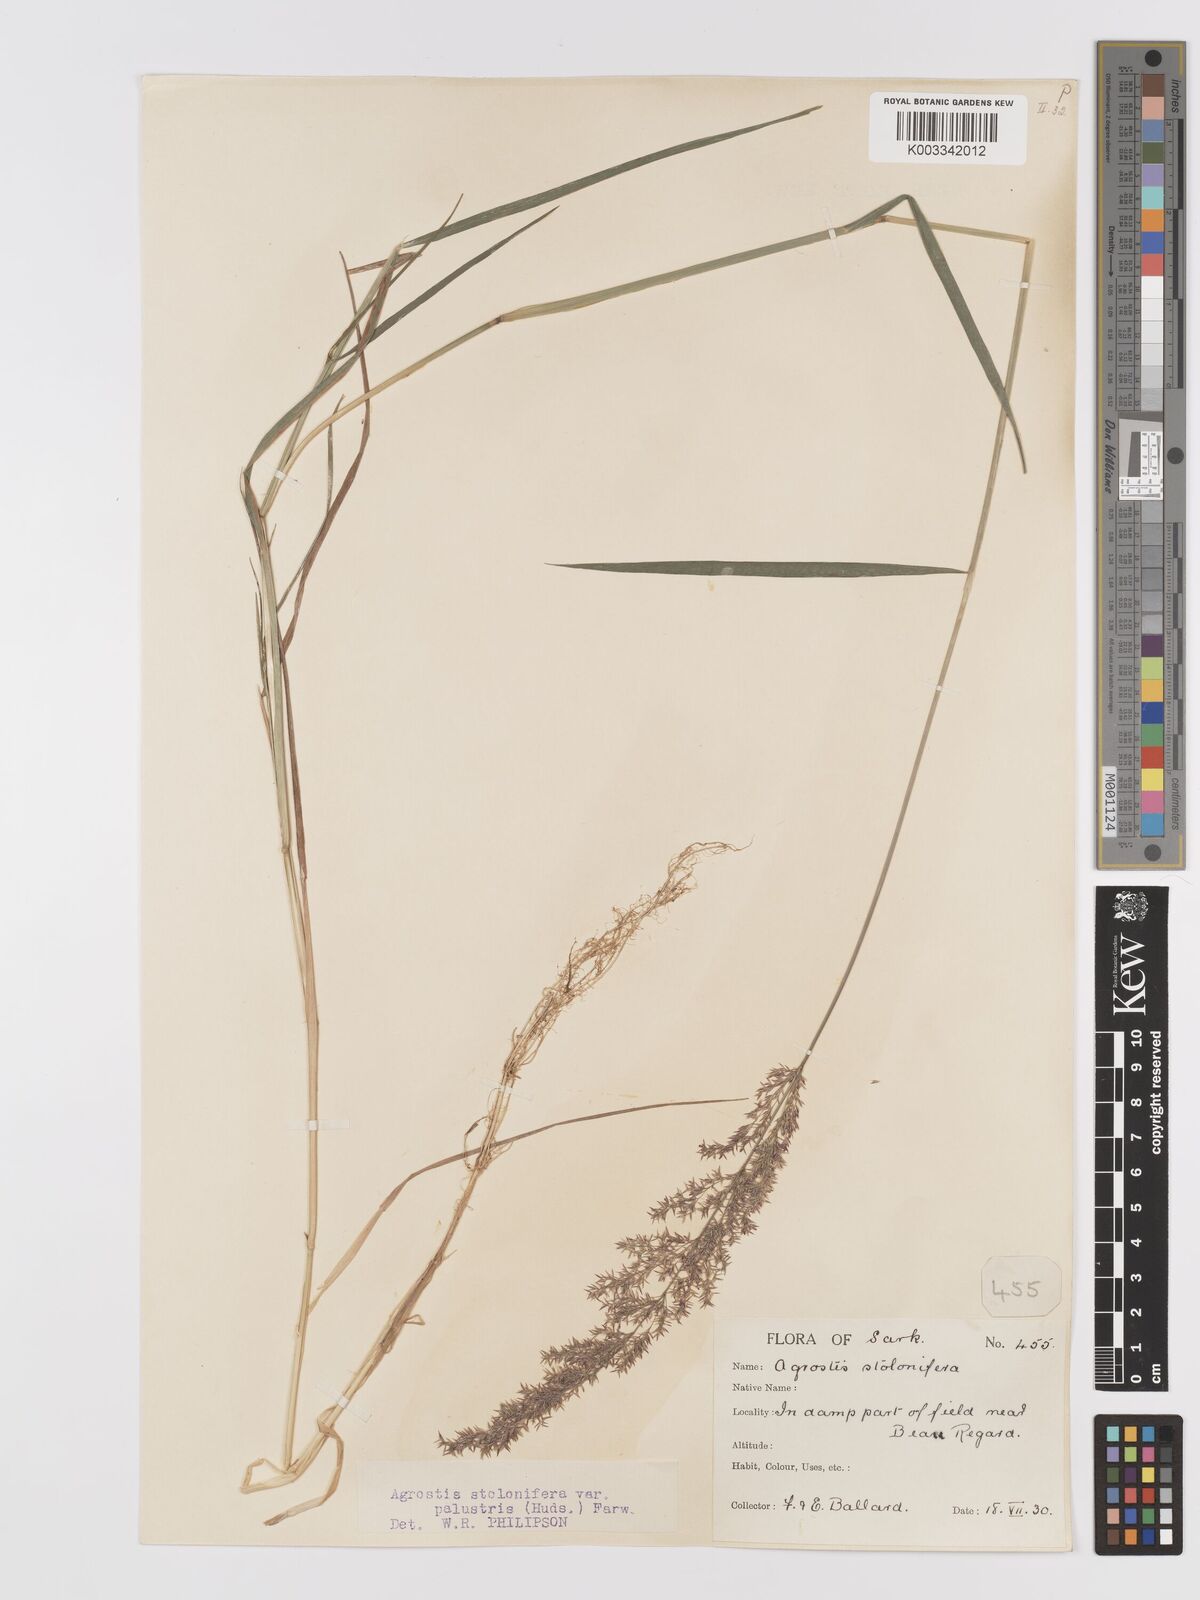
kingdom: Plantae
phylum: Tracheophyta
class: Liliopsida
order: Poales
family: Poaceae
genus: Agrostis
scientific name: Agrostis stolonifera
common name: Creeping bentgrass
